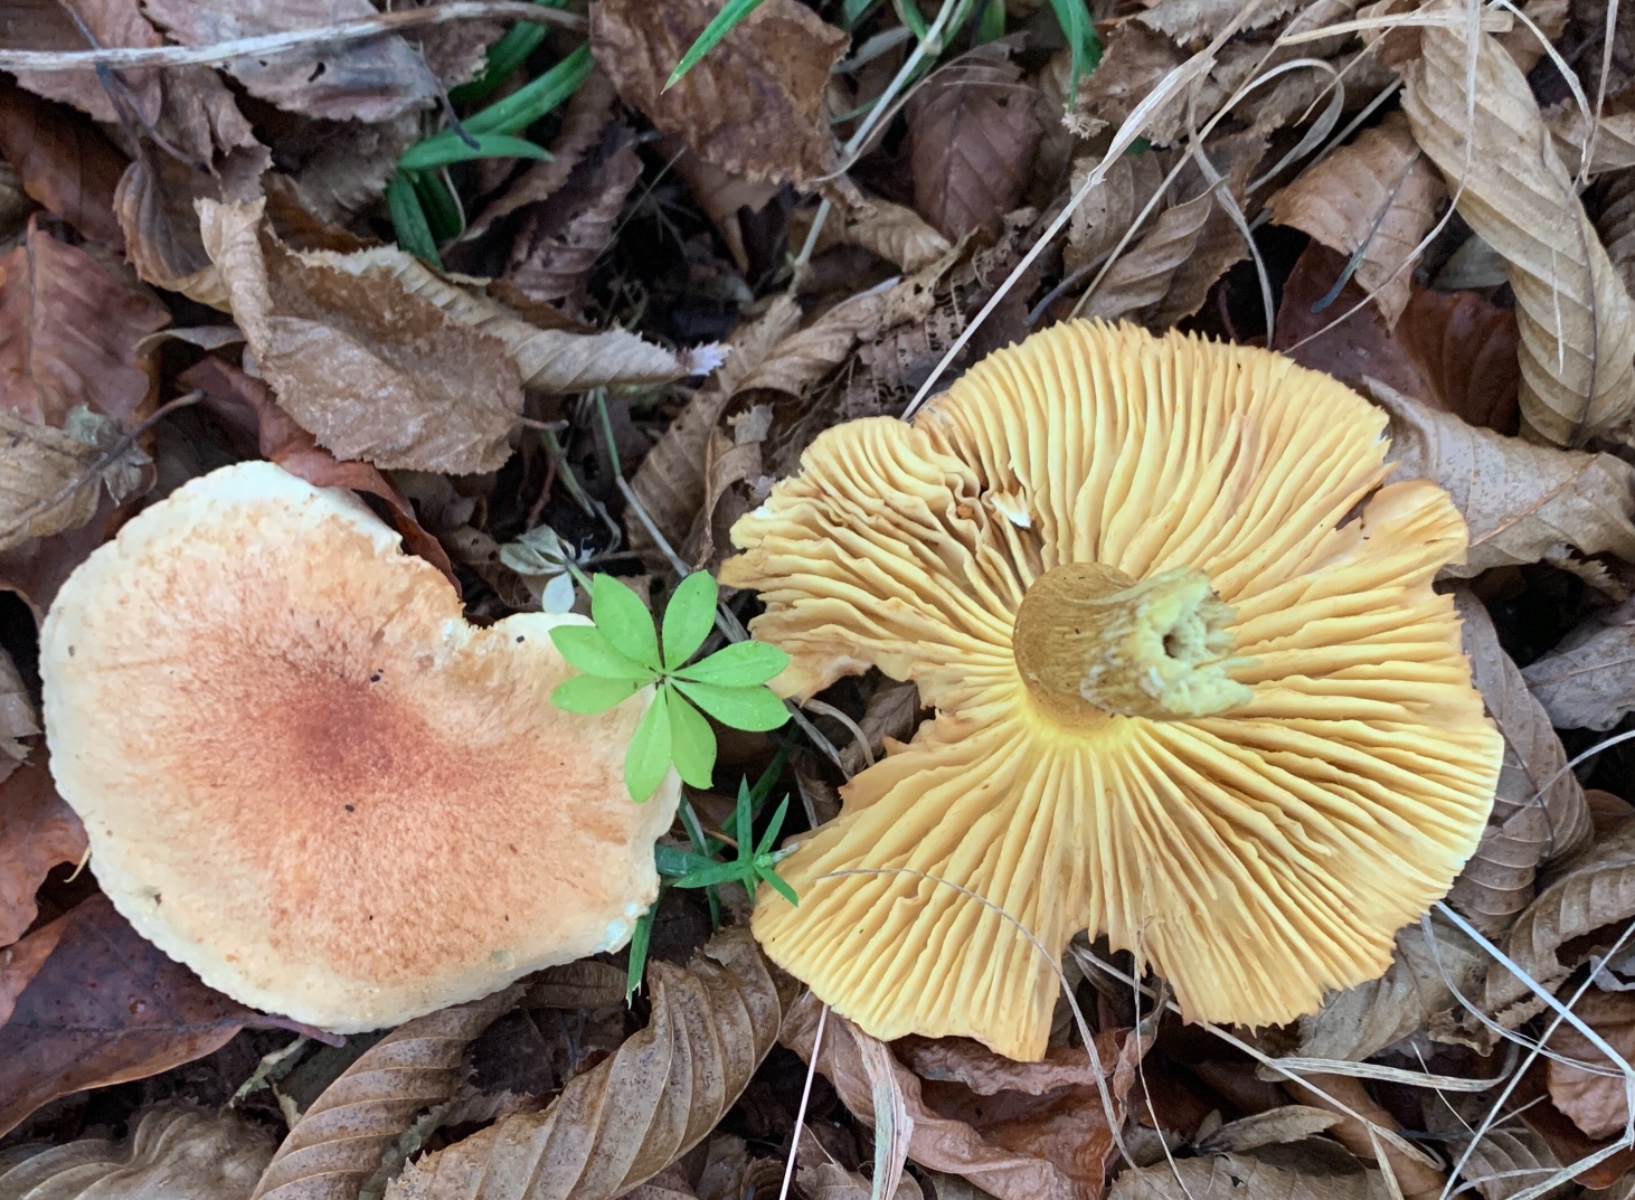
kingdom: Fungi
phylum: Basidiomycota
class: Agaricomycetes
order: Agaricales
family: Tricholomataceae
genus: Tricholoma
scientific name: Tricholoma sulphureum
